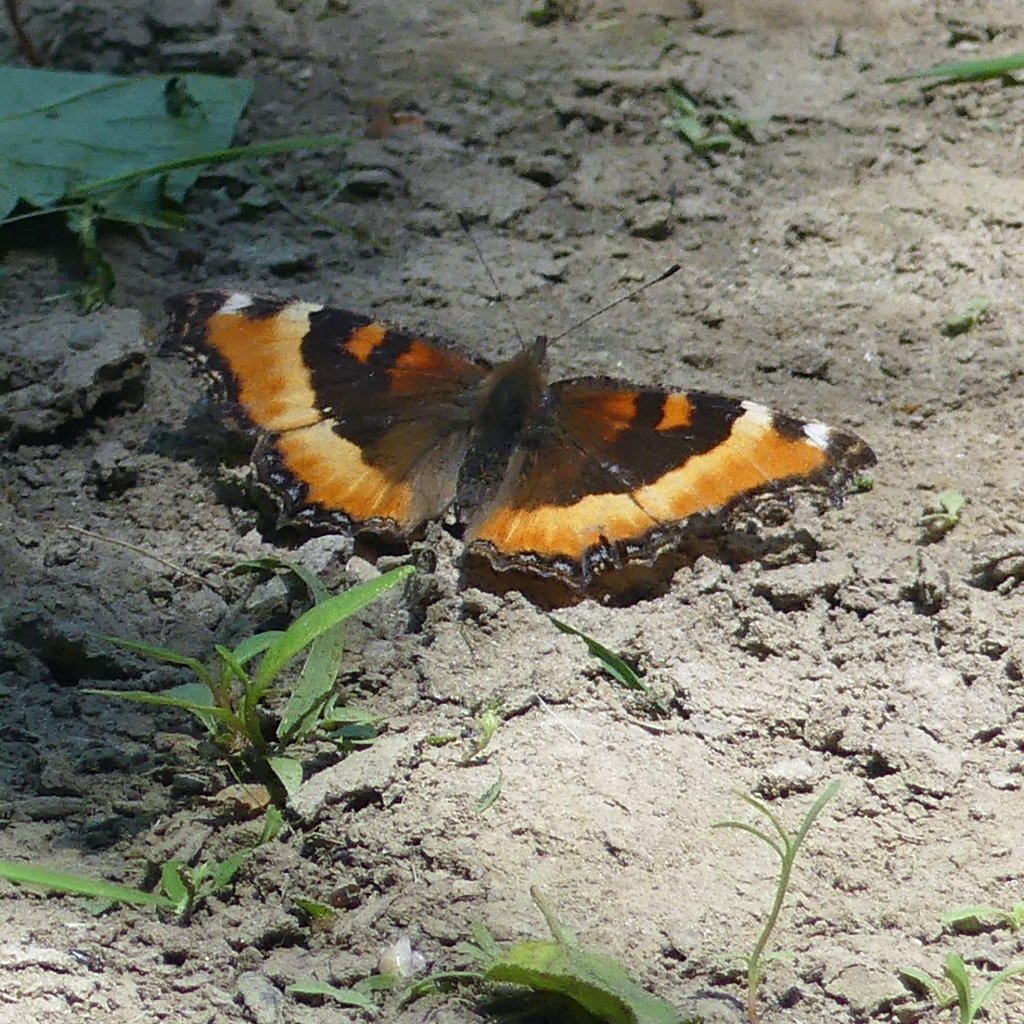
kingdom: Animalia
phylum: Arthropoda
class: Insecta
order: Lepidoptera
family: Nymphalidae
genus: Aglais
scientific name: Aglais milberti
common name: Milbert's Tortoiseshell
